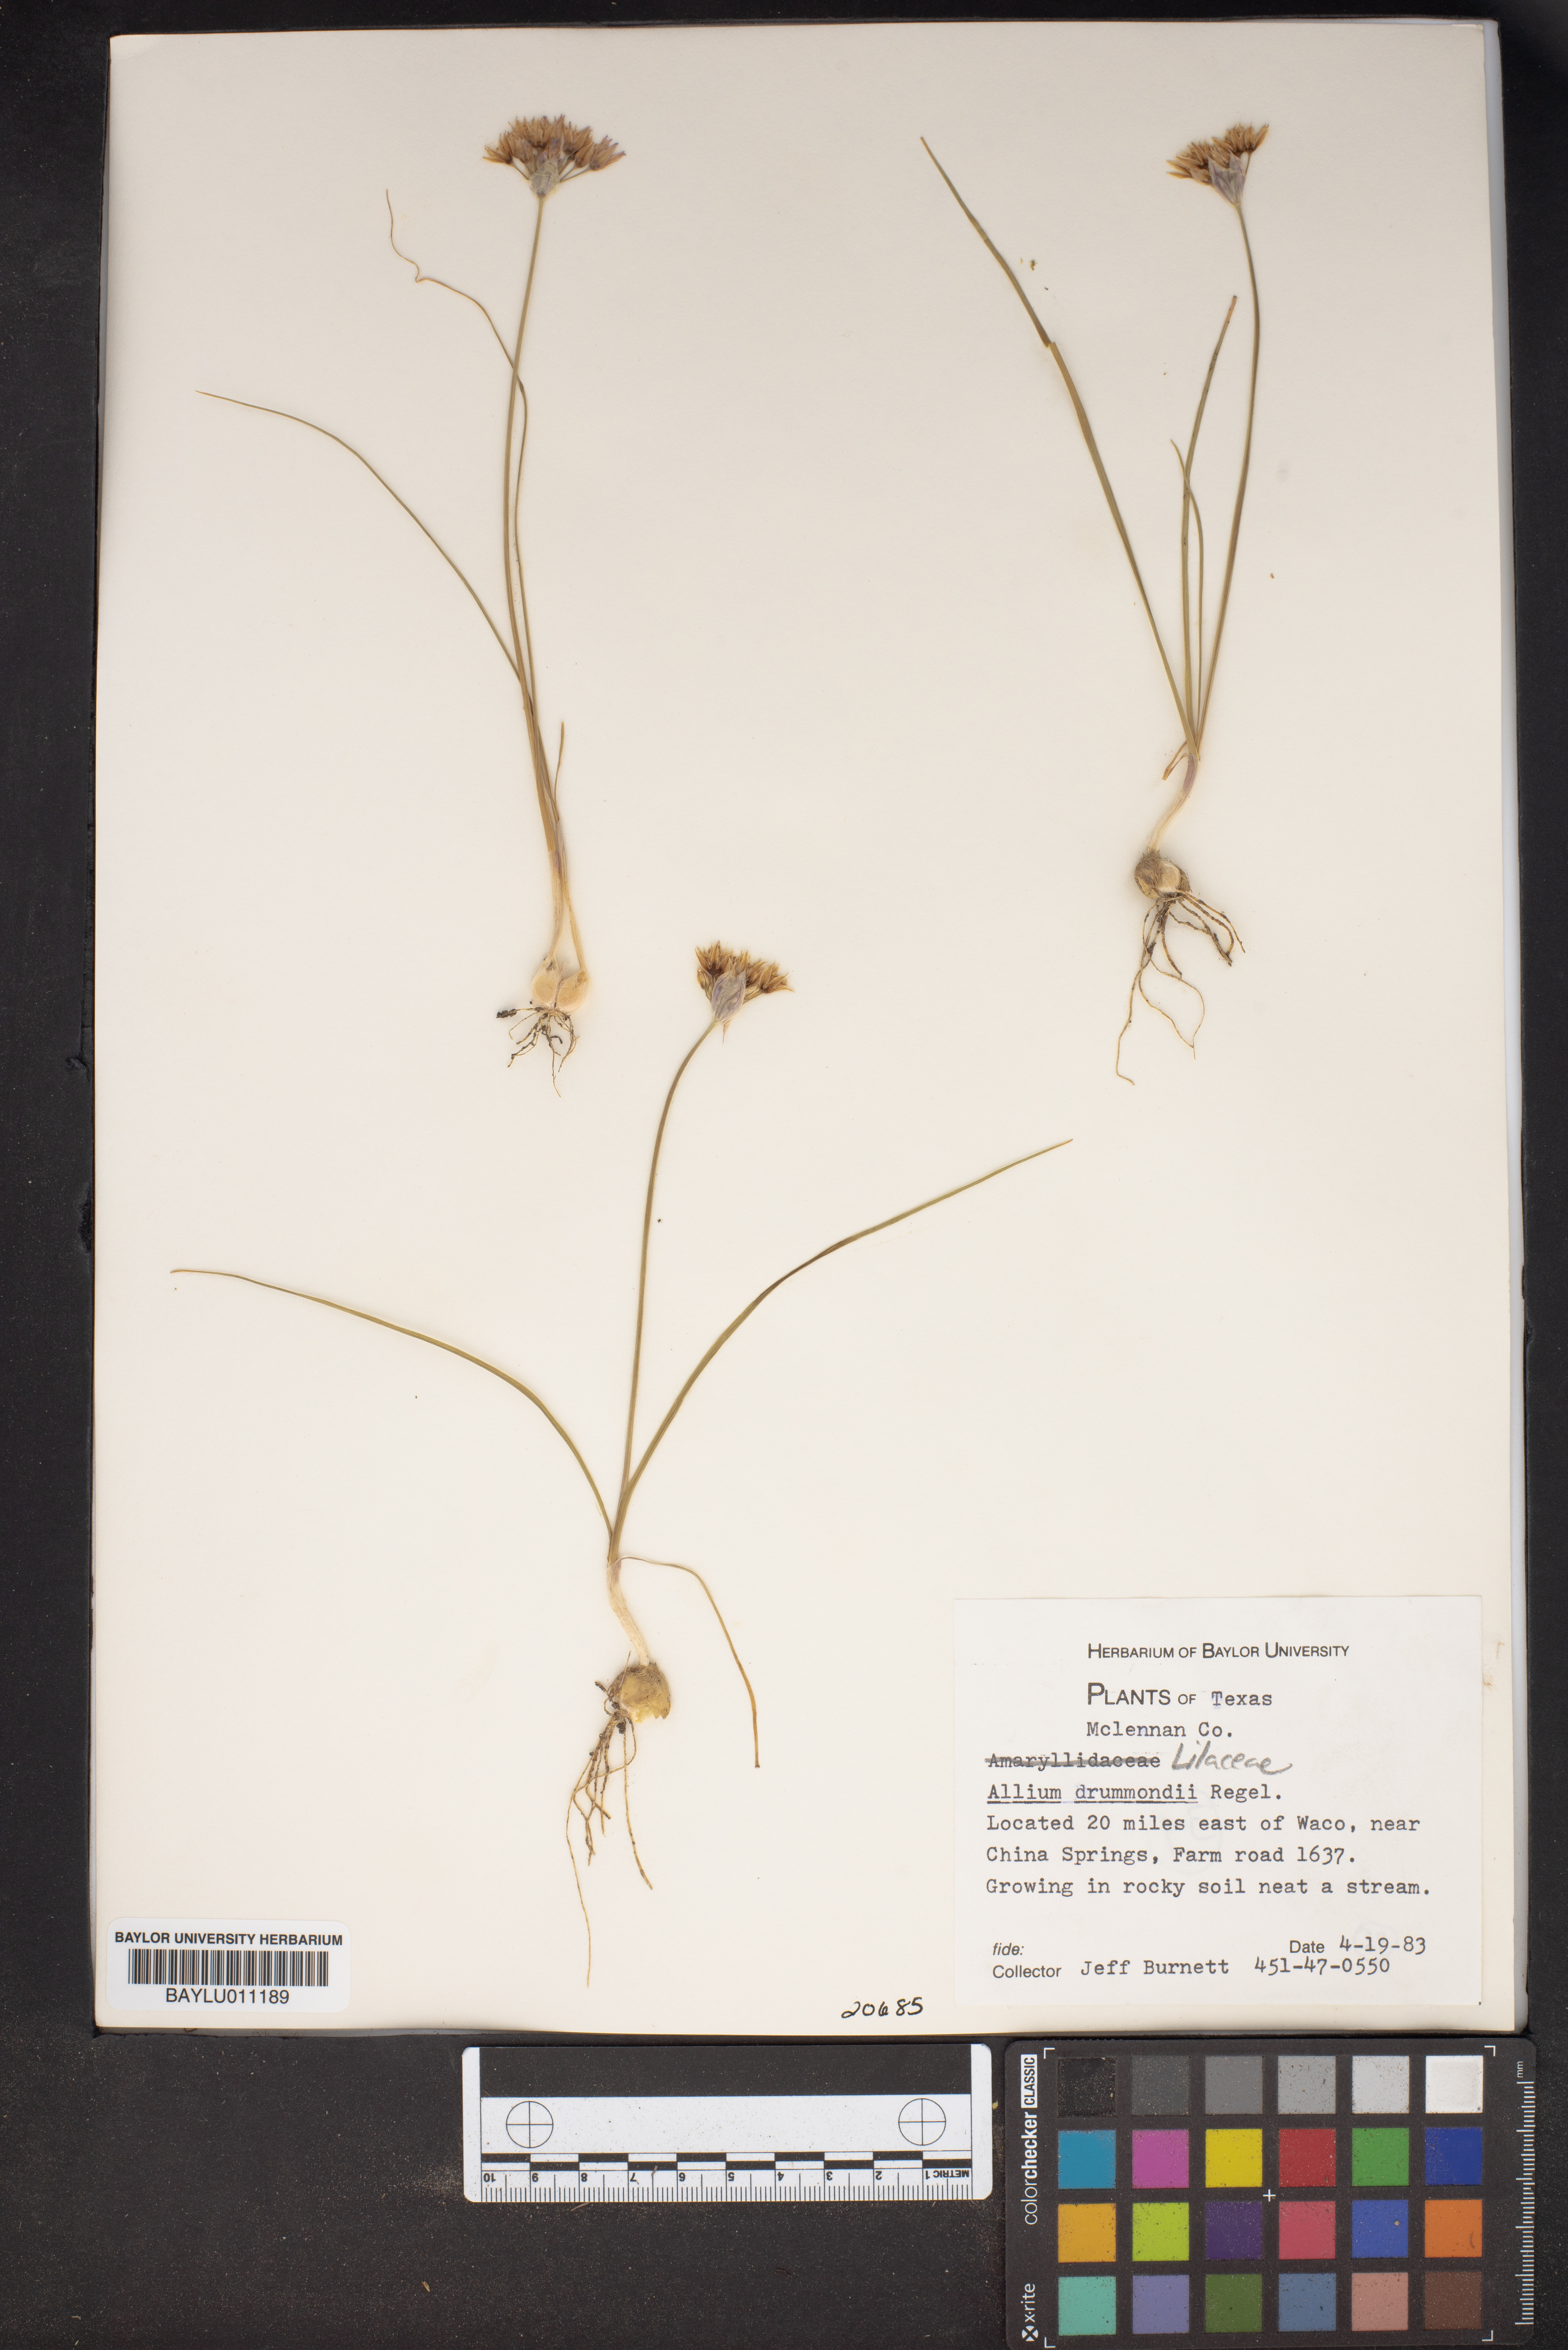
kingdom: Plantae
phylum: Tracheophyta
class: Liliopsida
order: Asparagales
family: Amaryllidaceae
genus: Allium
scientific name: Allium drummondii
